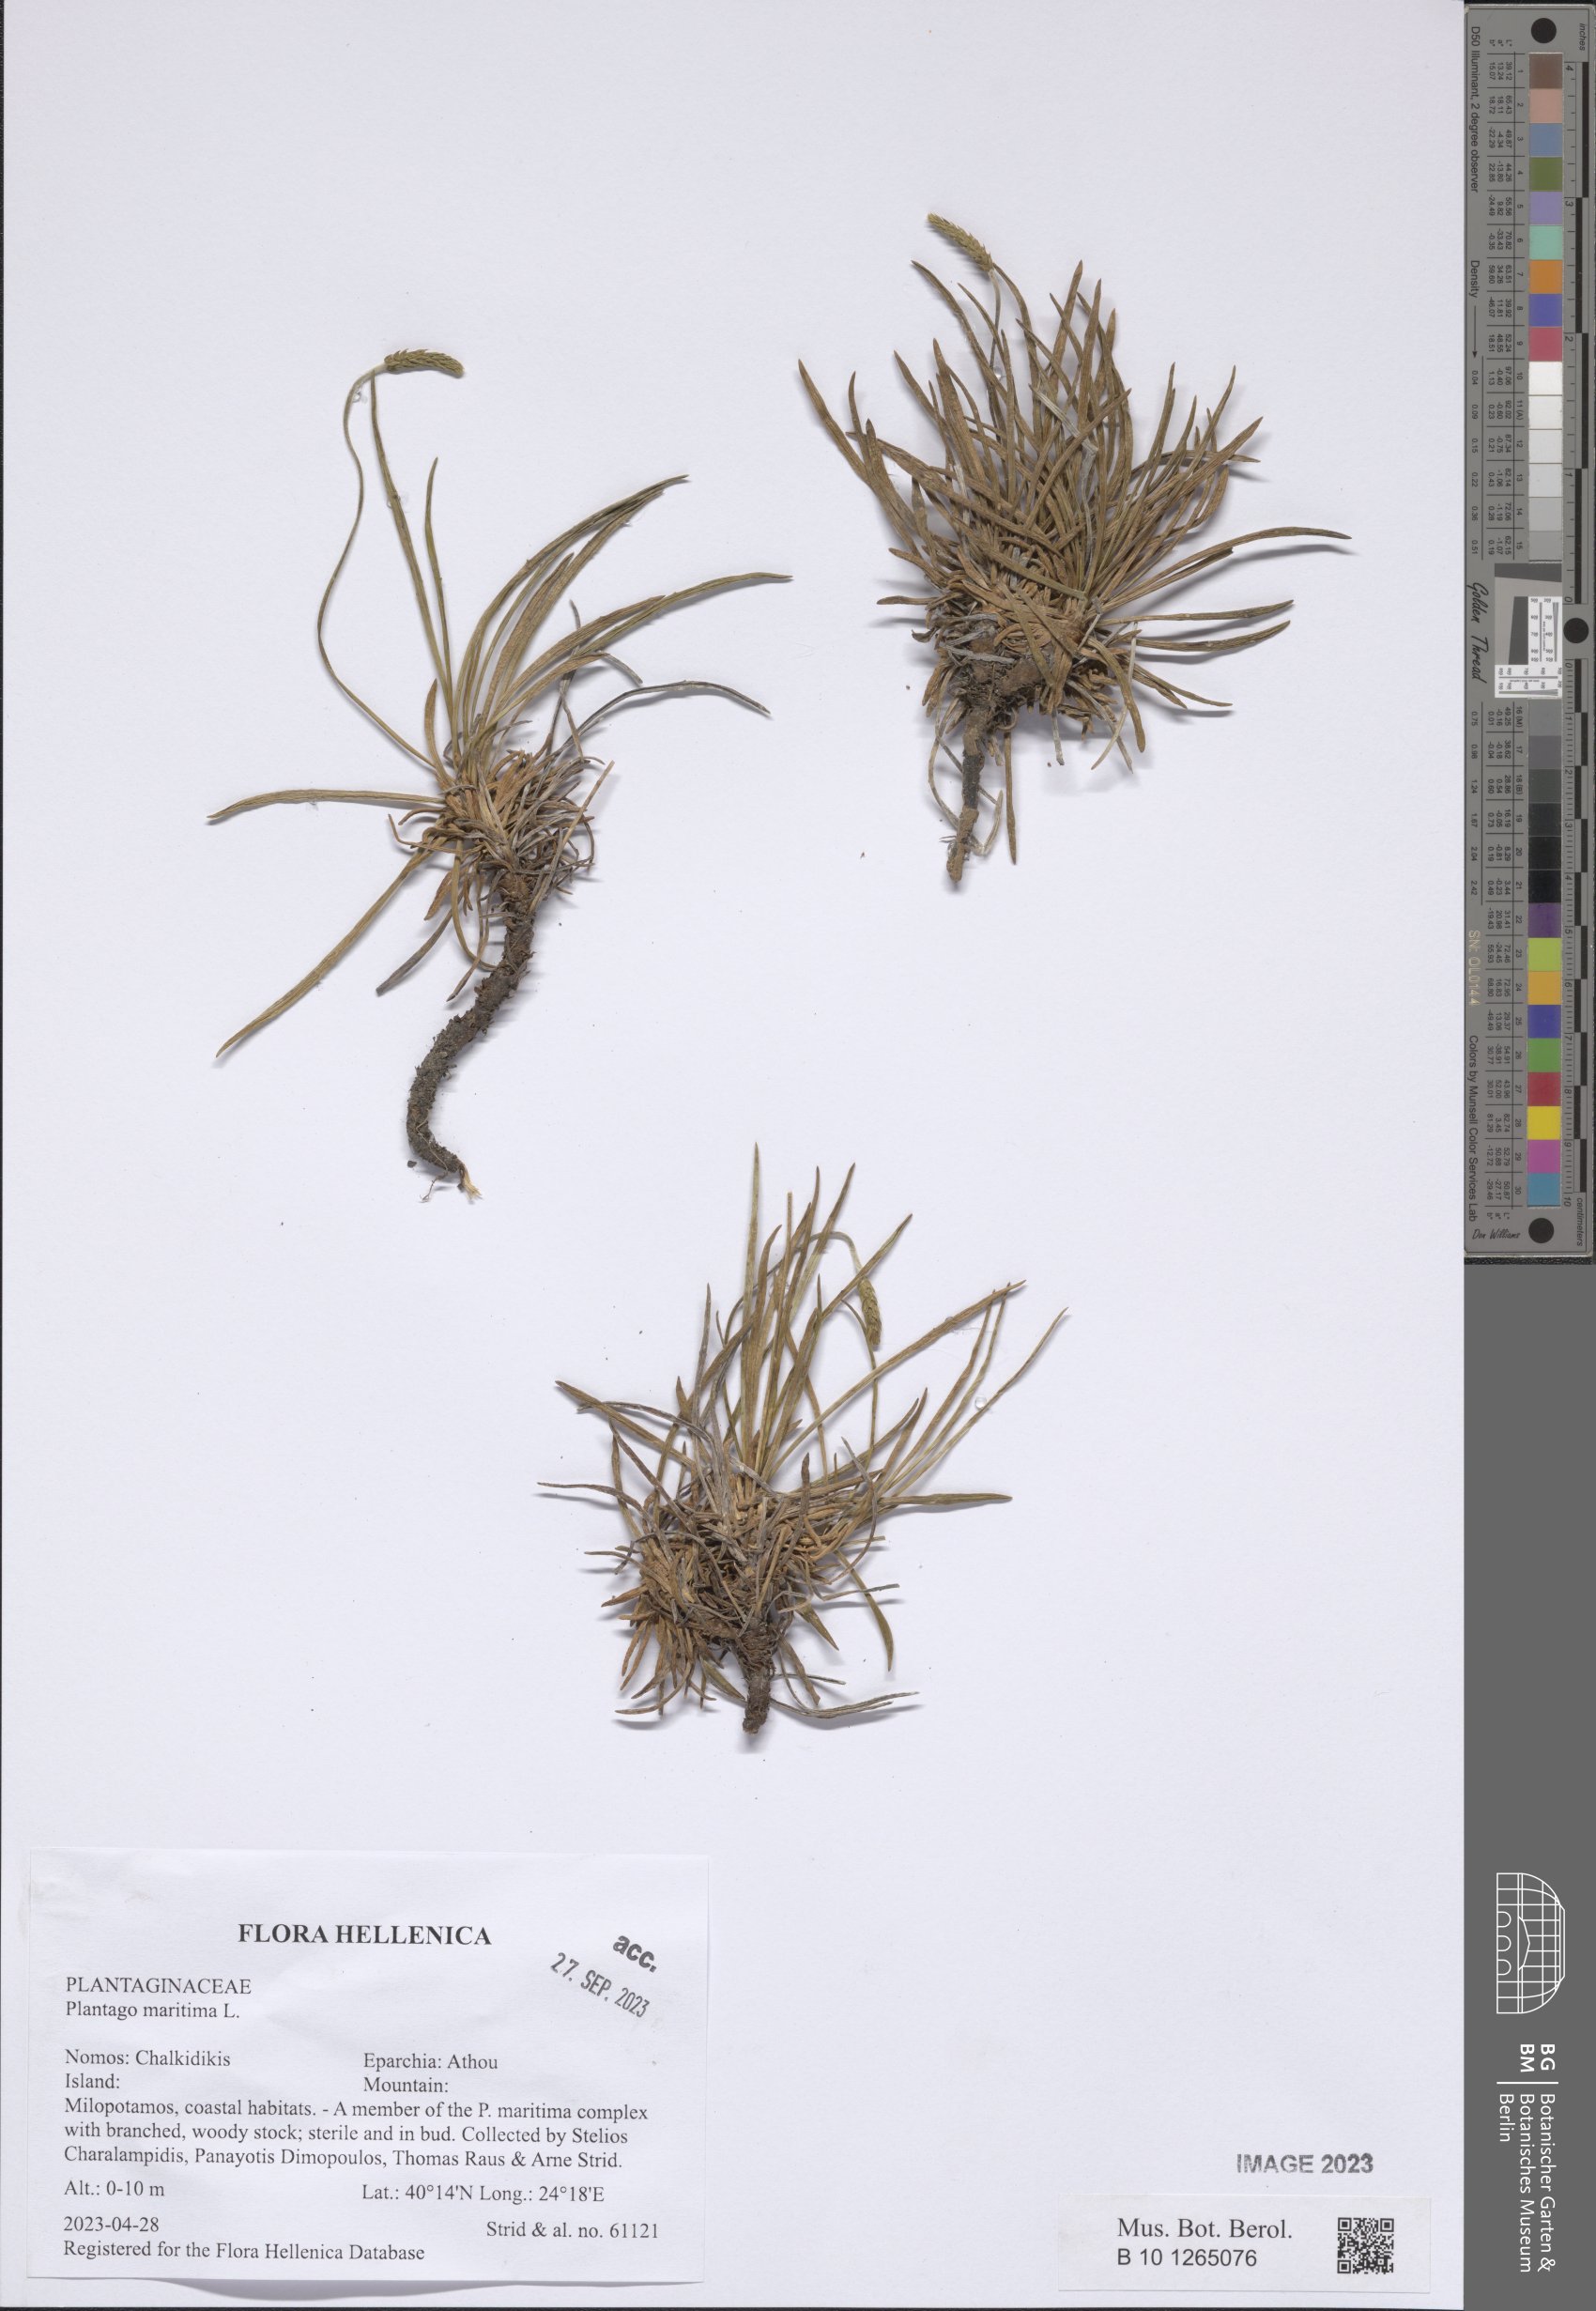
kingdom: Plantae
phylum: Tracheophyta
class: Magnoliopsida
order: Lamiales
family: Plantaginaceae
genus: Plantago
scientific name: Plantago maritima
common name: Sea plantain
